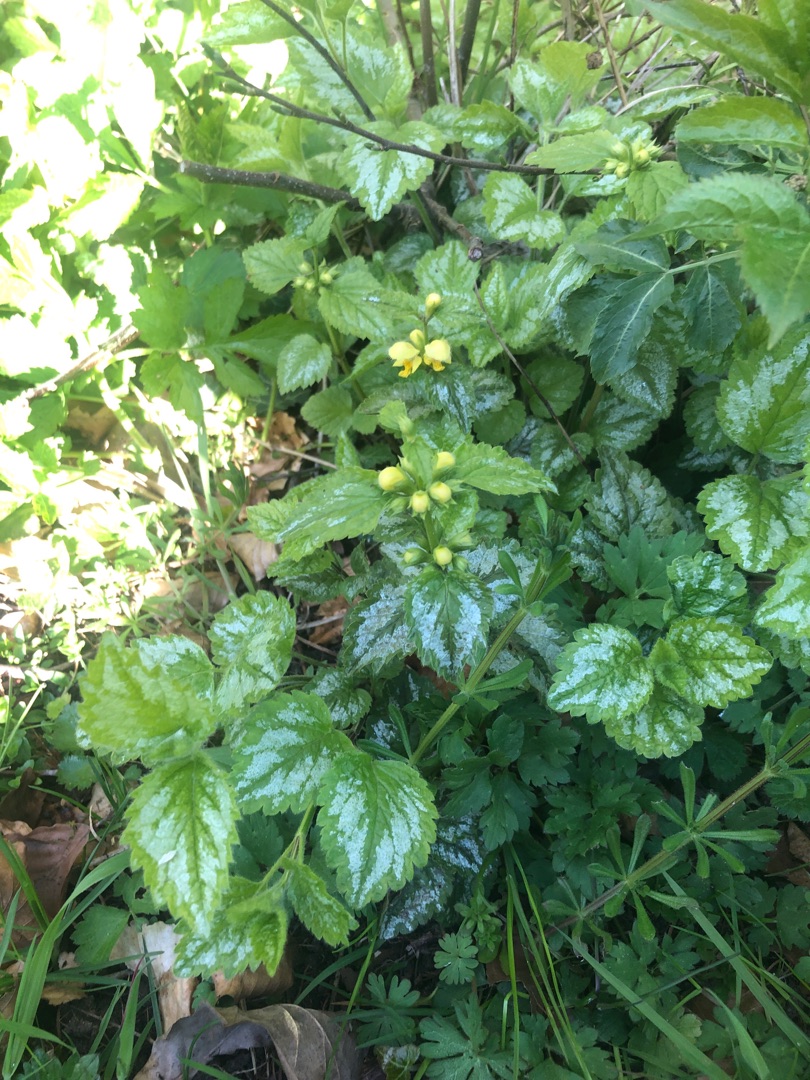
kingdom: Plantae
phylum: Tracheophyta
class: Magnoliopsida
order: Lamiales
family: Lamiaceae
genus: Lamium
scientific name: Lamium galeobdolon
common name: Have-guldnælde
